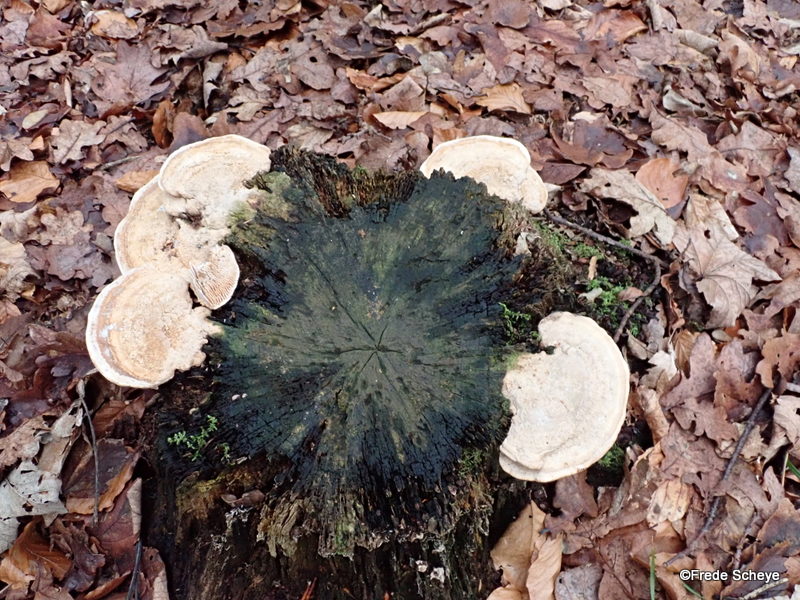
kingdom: Fungi
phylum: Basidiomycota
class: Agaricomycetes
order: Polyporales
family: Fomitopsidaceae
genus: Daedalea
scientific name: Daedalea quercina
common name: ege-labyrintsvamp
